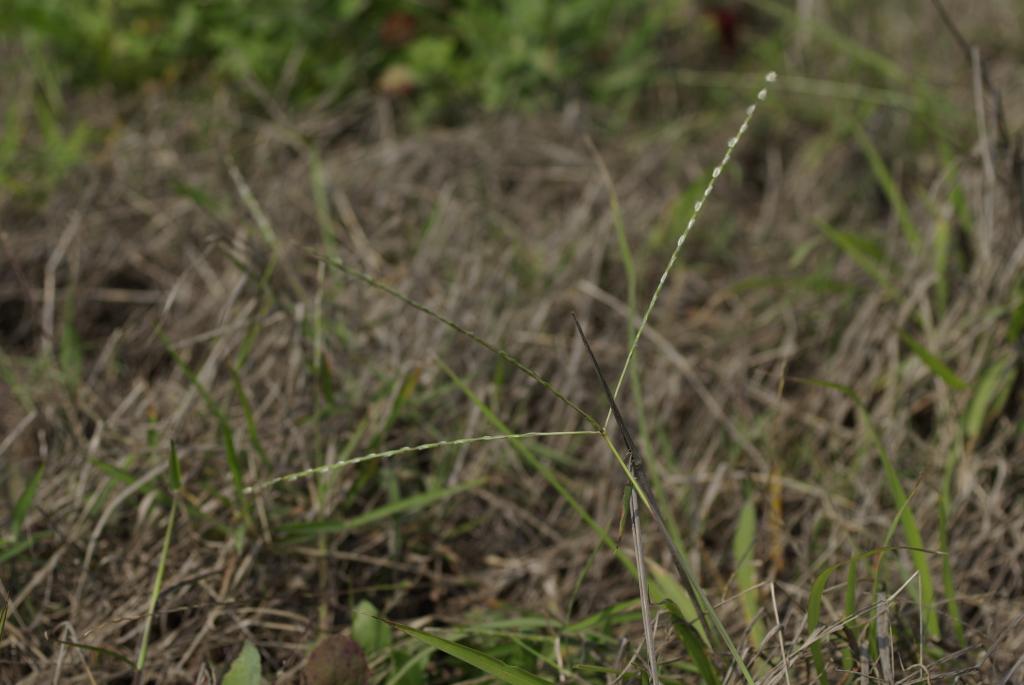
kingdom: Plantae
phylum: Tracheophyta
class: Liliopsida
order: Poales
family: Poaceae
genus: Digitaria
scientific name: Digitaria heterantha
